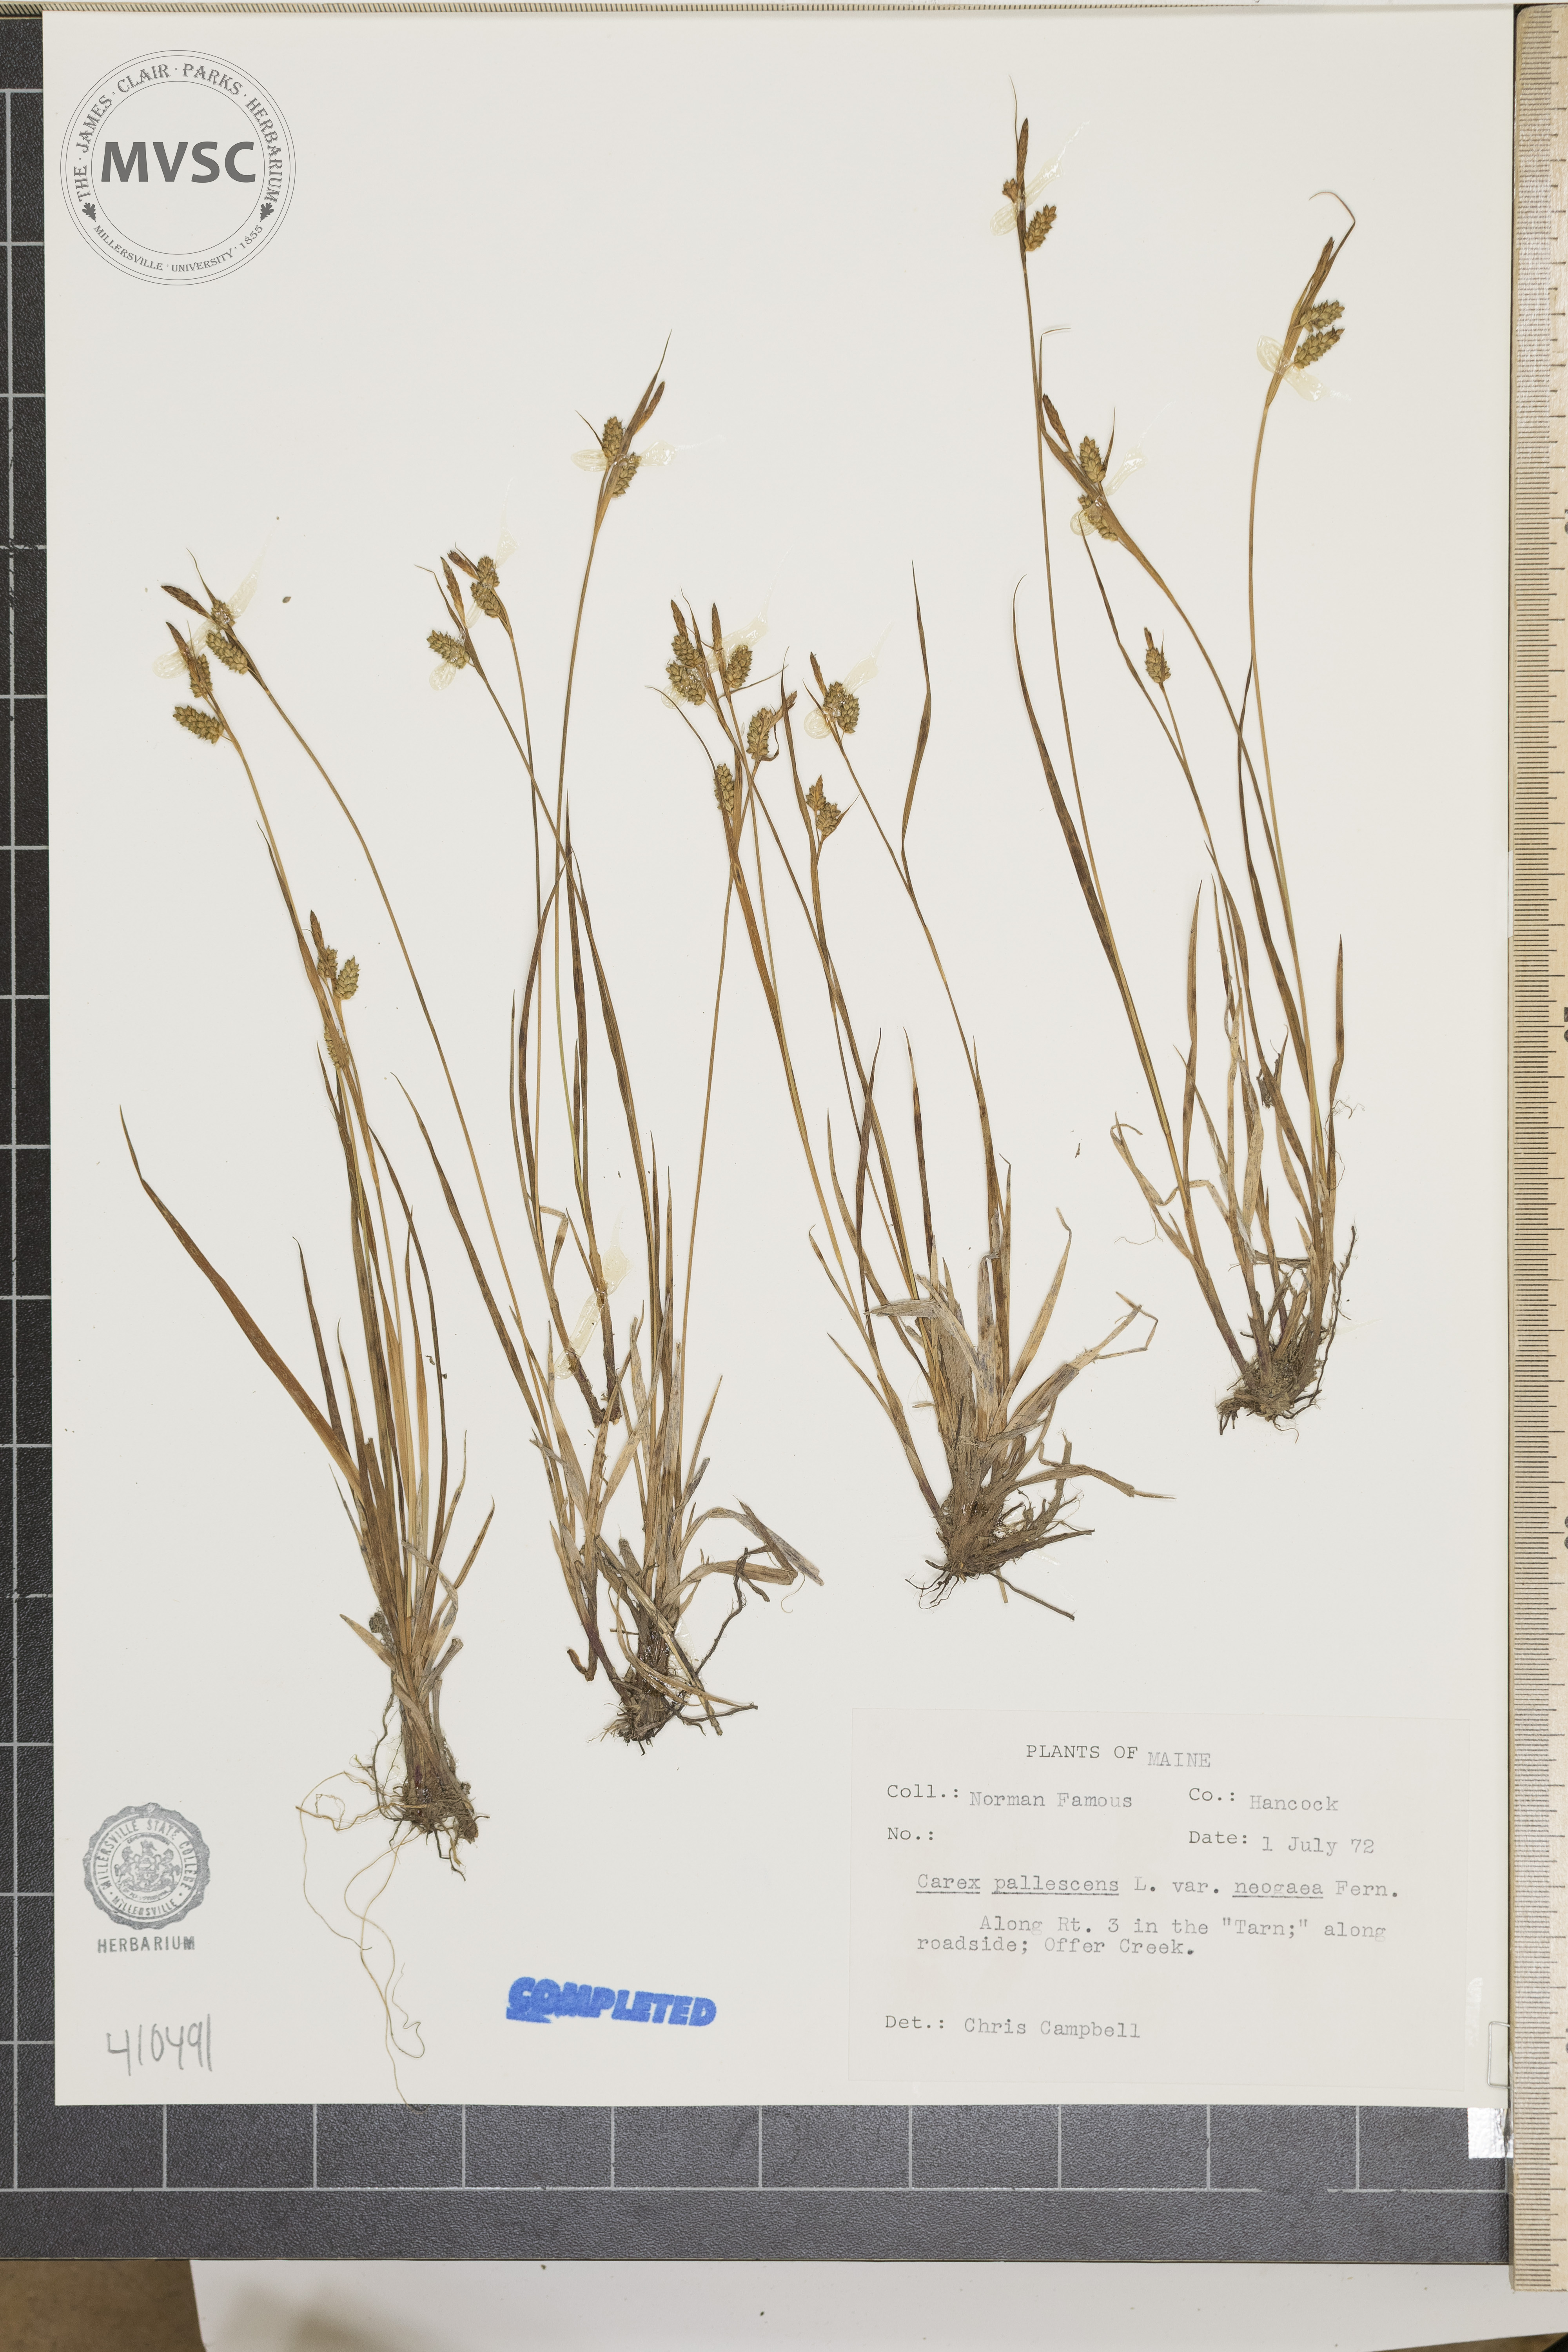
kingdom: Plantae
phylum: Tracheophyta
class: Liliopsida
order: Poales
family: Cyperaceae
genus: Carex
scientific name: Carex pallescens
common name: Pale sedge
